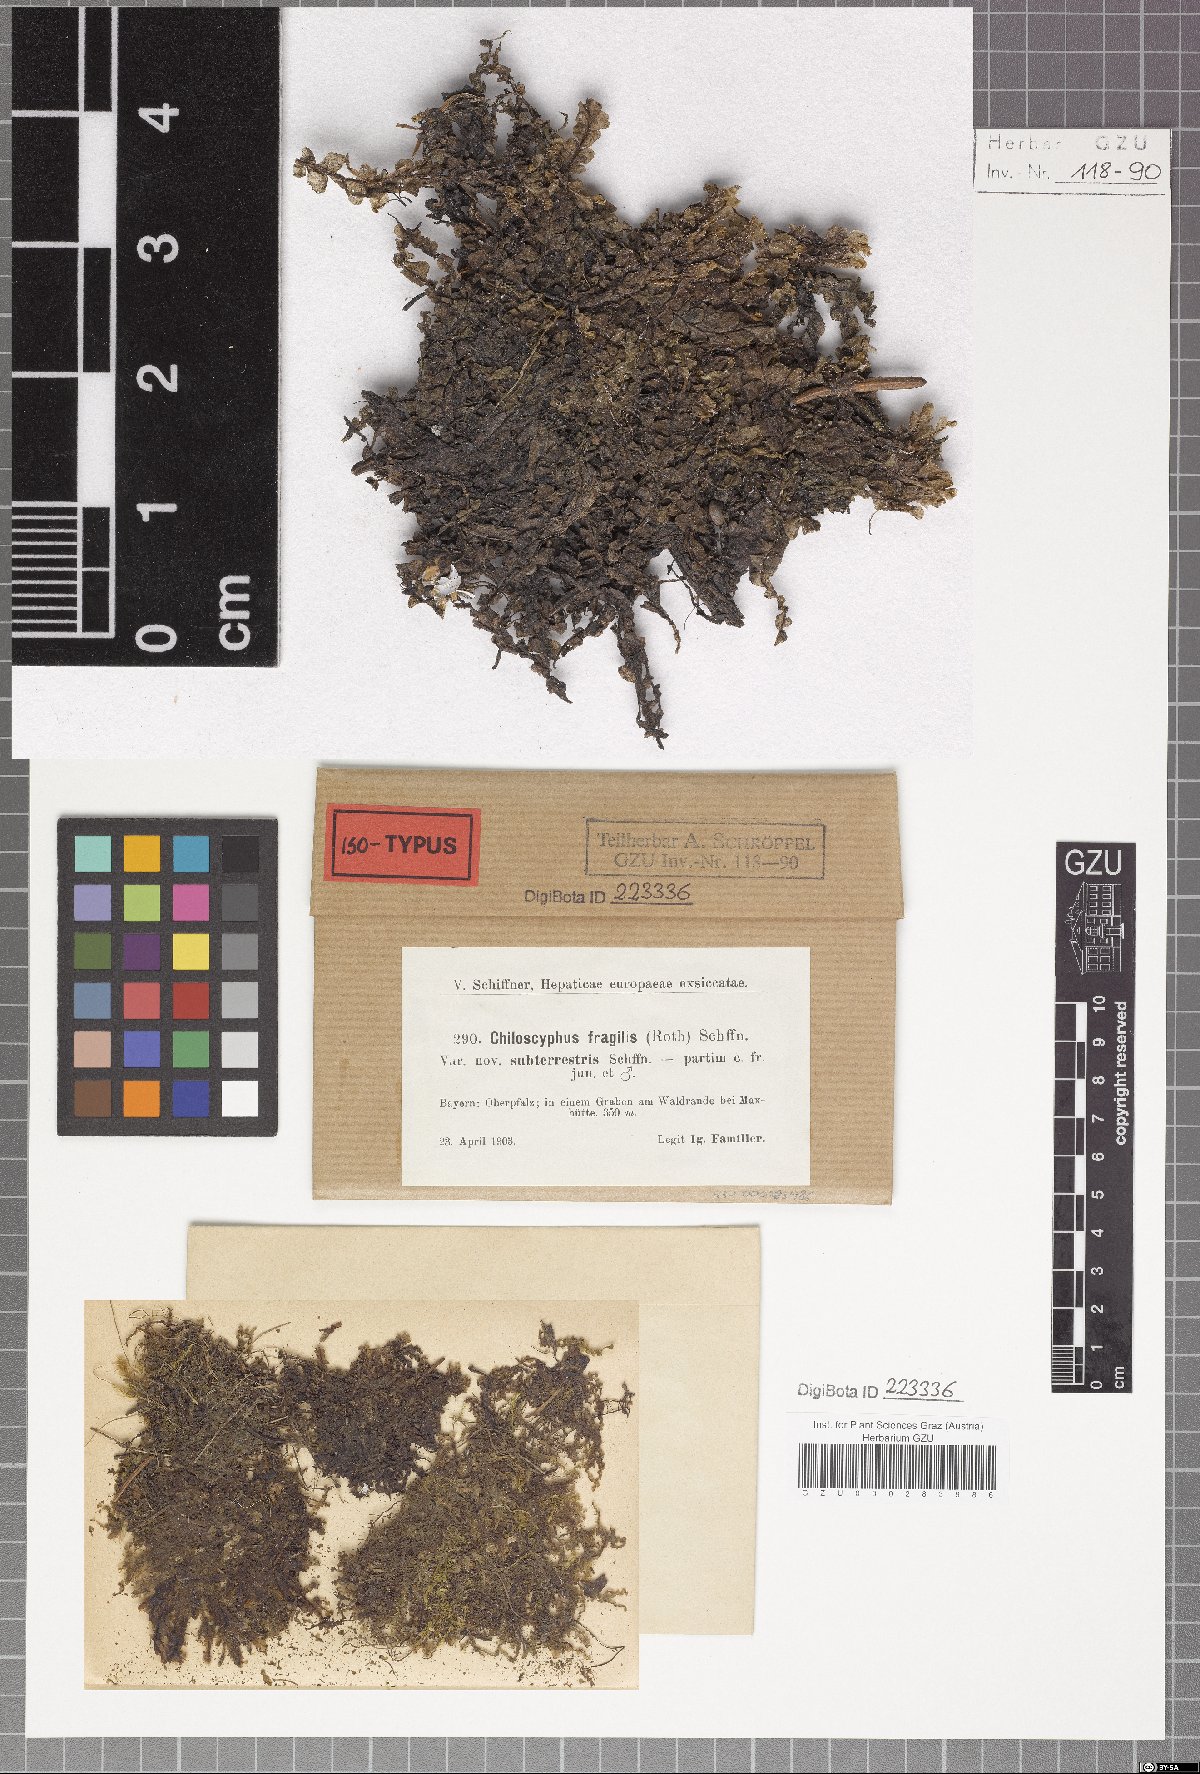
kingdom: Plantae
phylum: Marchantiophyta
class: Jungermanniopsida
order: Jungermanniales
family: Lophocoleaceae
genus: Chiloscyphus
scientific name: Chiloscyphus pallescens
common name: St winifrid's other moss
